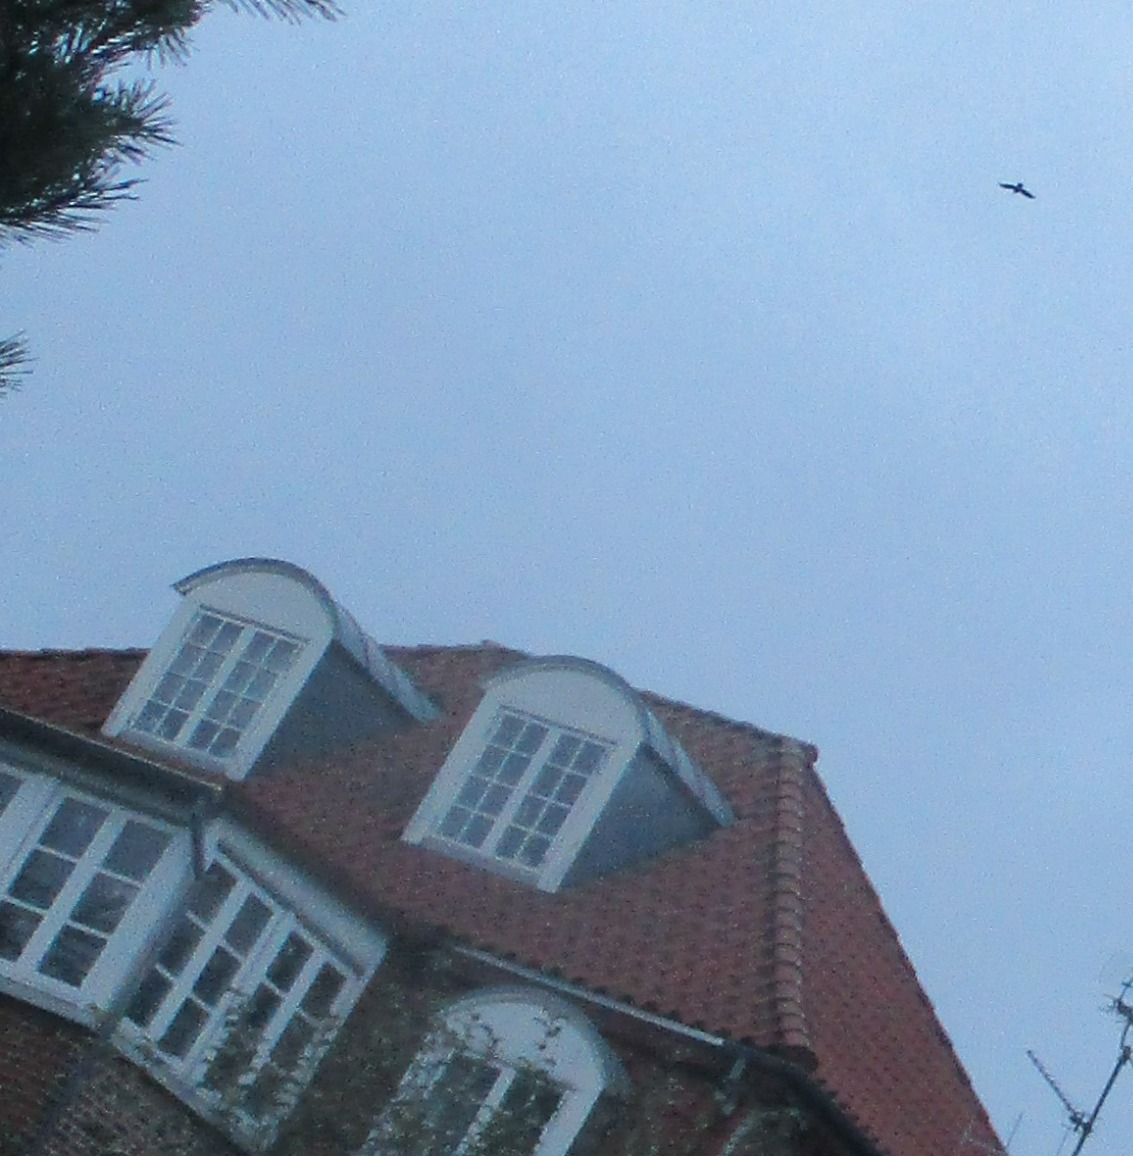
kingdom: Animalia
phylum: Chordata
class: Aves
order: Passeriformes
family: Corvidae
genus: Corvus
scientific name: Corvus frugilegus
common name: Råge
